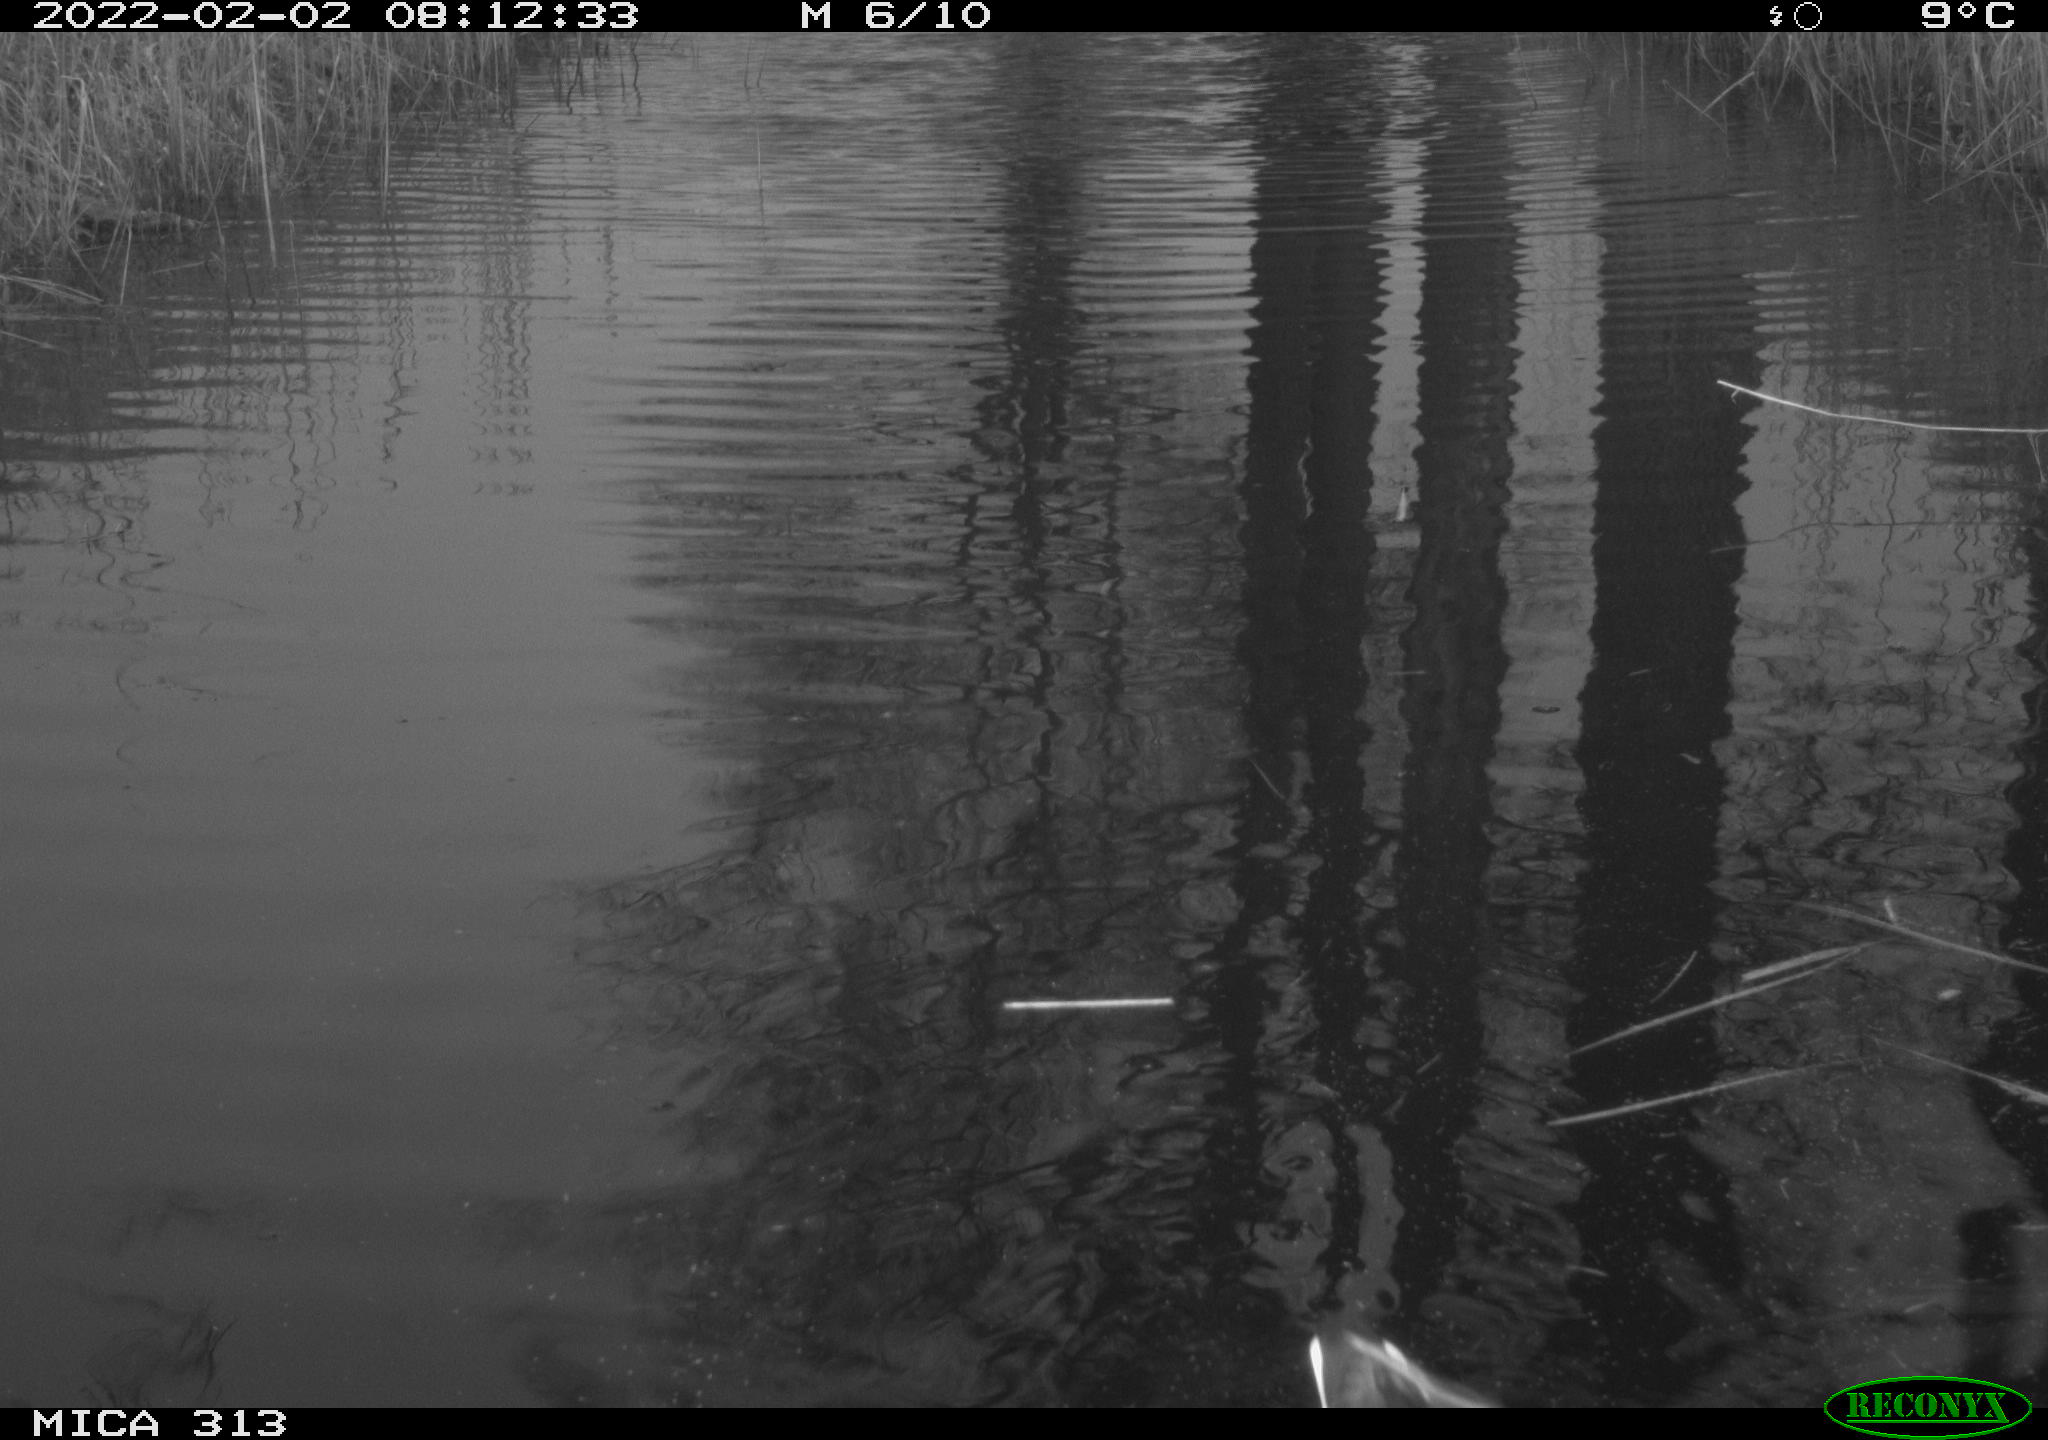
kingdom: Animalia
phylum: Chordata
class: Aves
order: Gruiformes
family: Rallidae
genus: Fulica
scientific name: Fulica atra
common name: Eurasian coot
